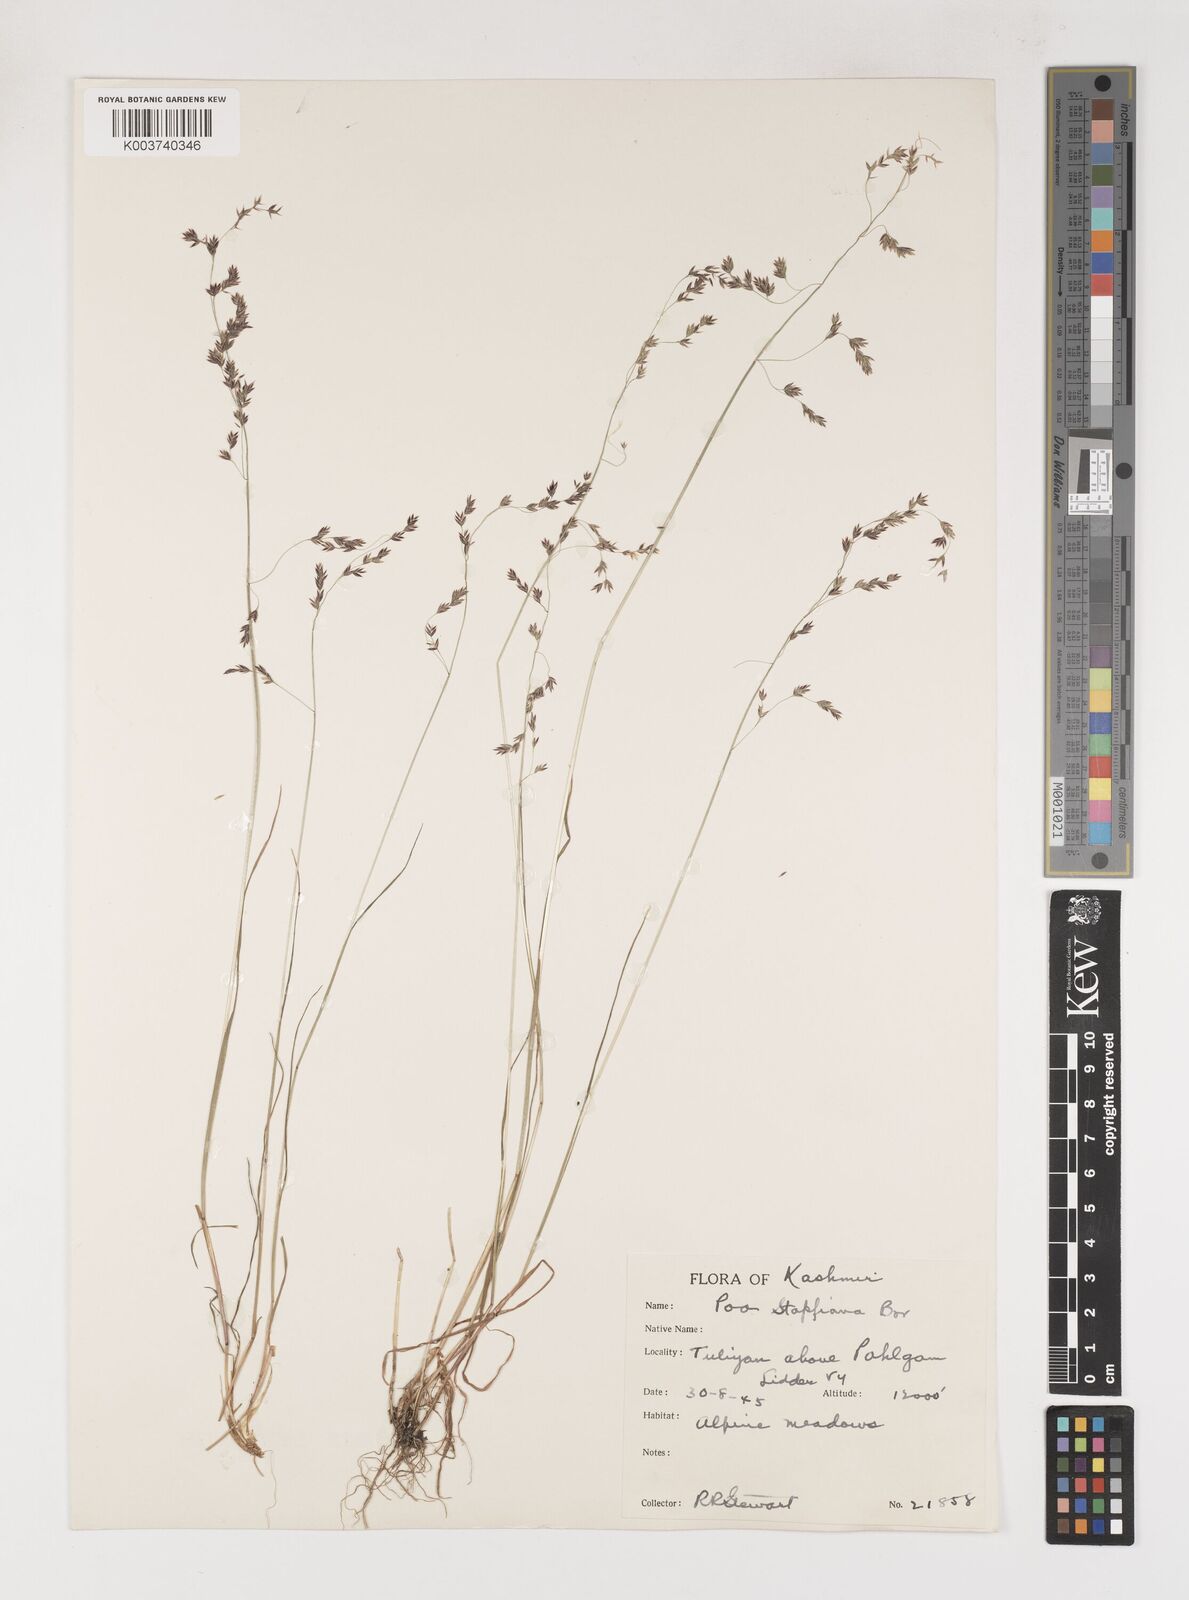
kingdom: Plantae
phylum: Tracheophyta
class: Liliopsida
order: Poales
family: Poaceae
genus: Poa
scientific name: Poa stapfiana
